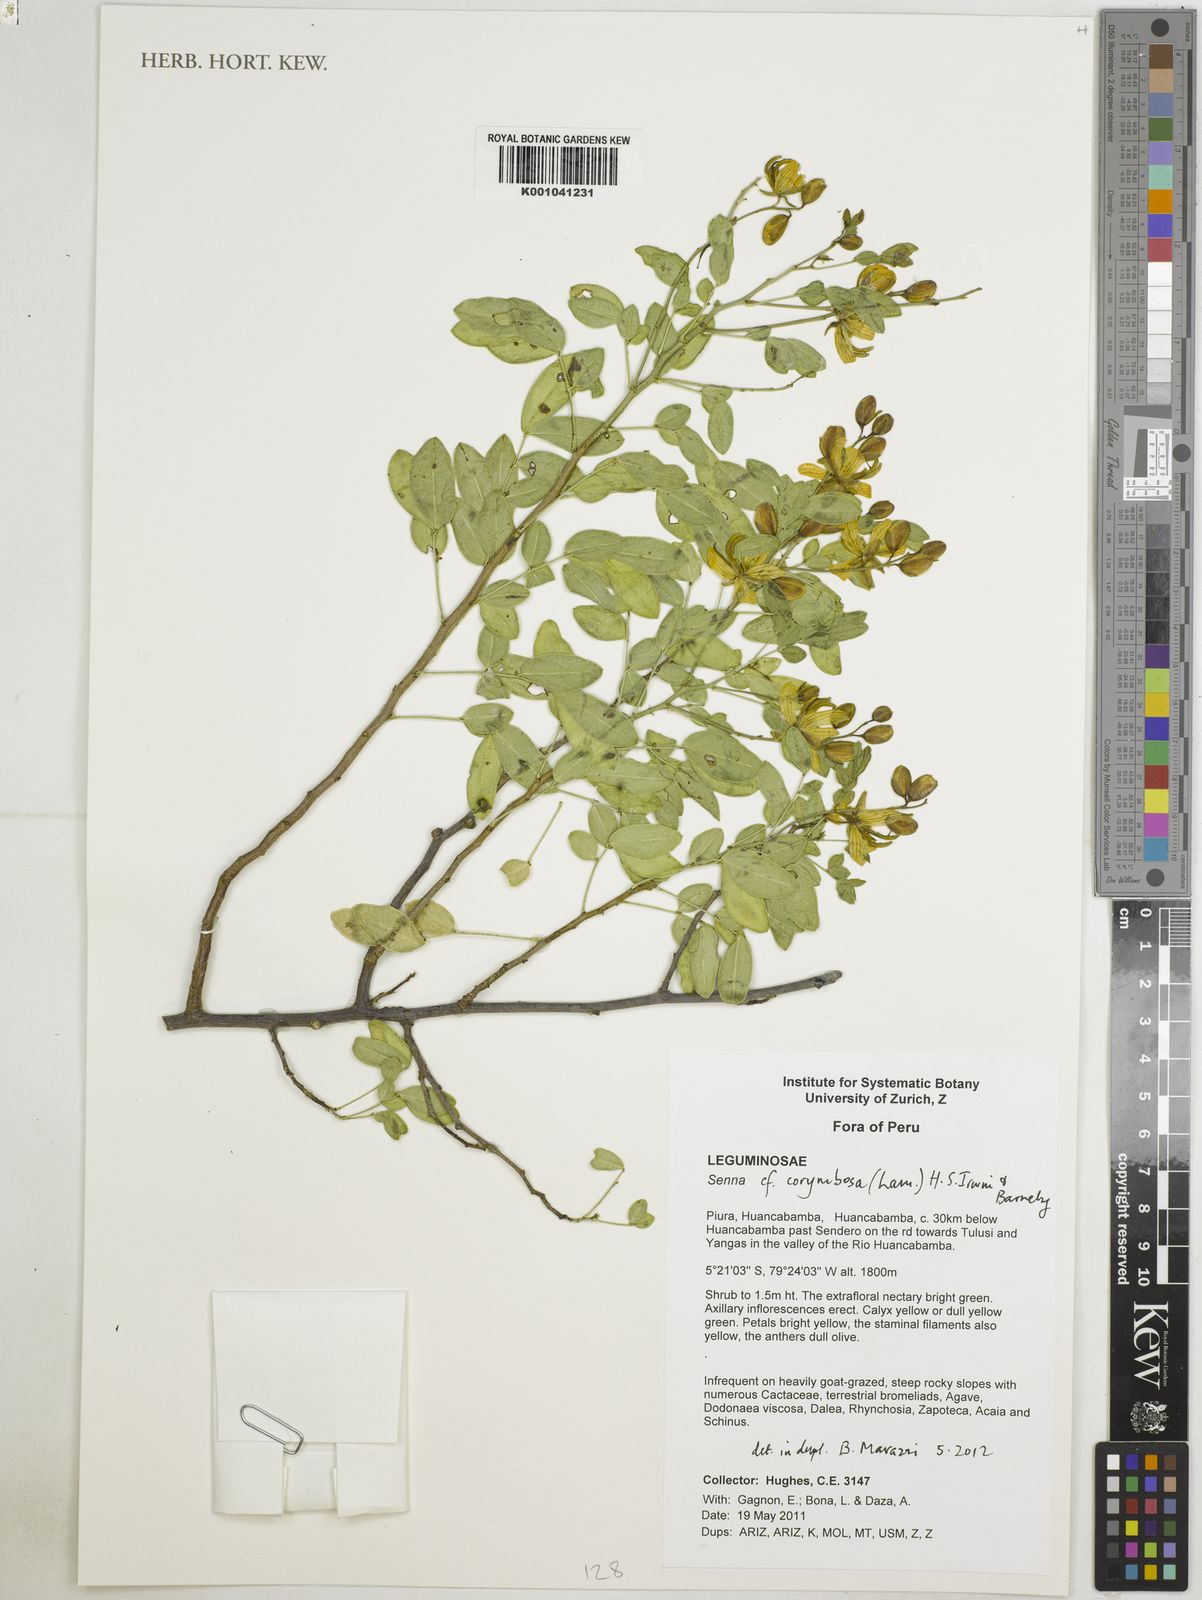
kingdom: Plantae
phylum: Tracheophyta
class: Magnoliopsida
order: Fabales
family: Fabaceae
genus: Senna
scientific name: Senna corymbosa
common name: Argentine senna
